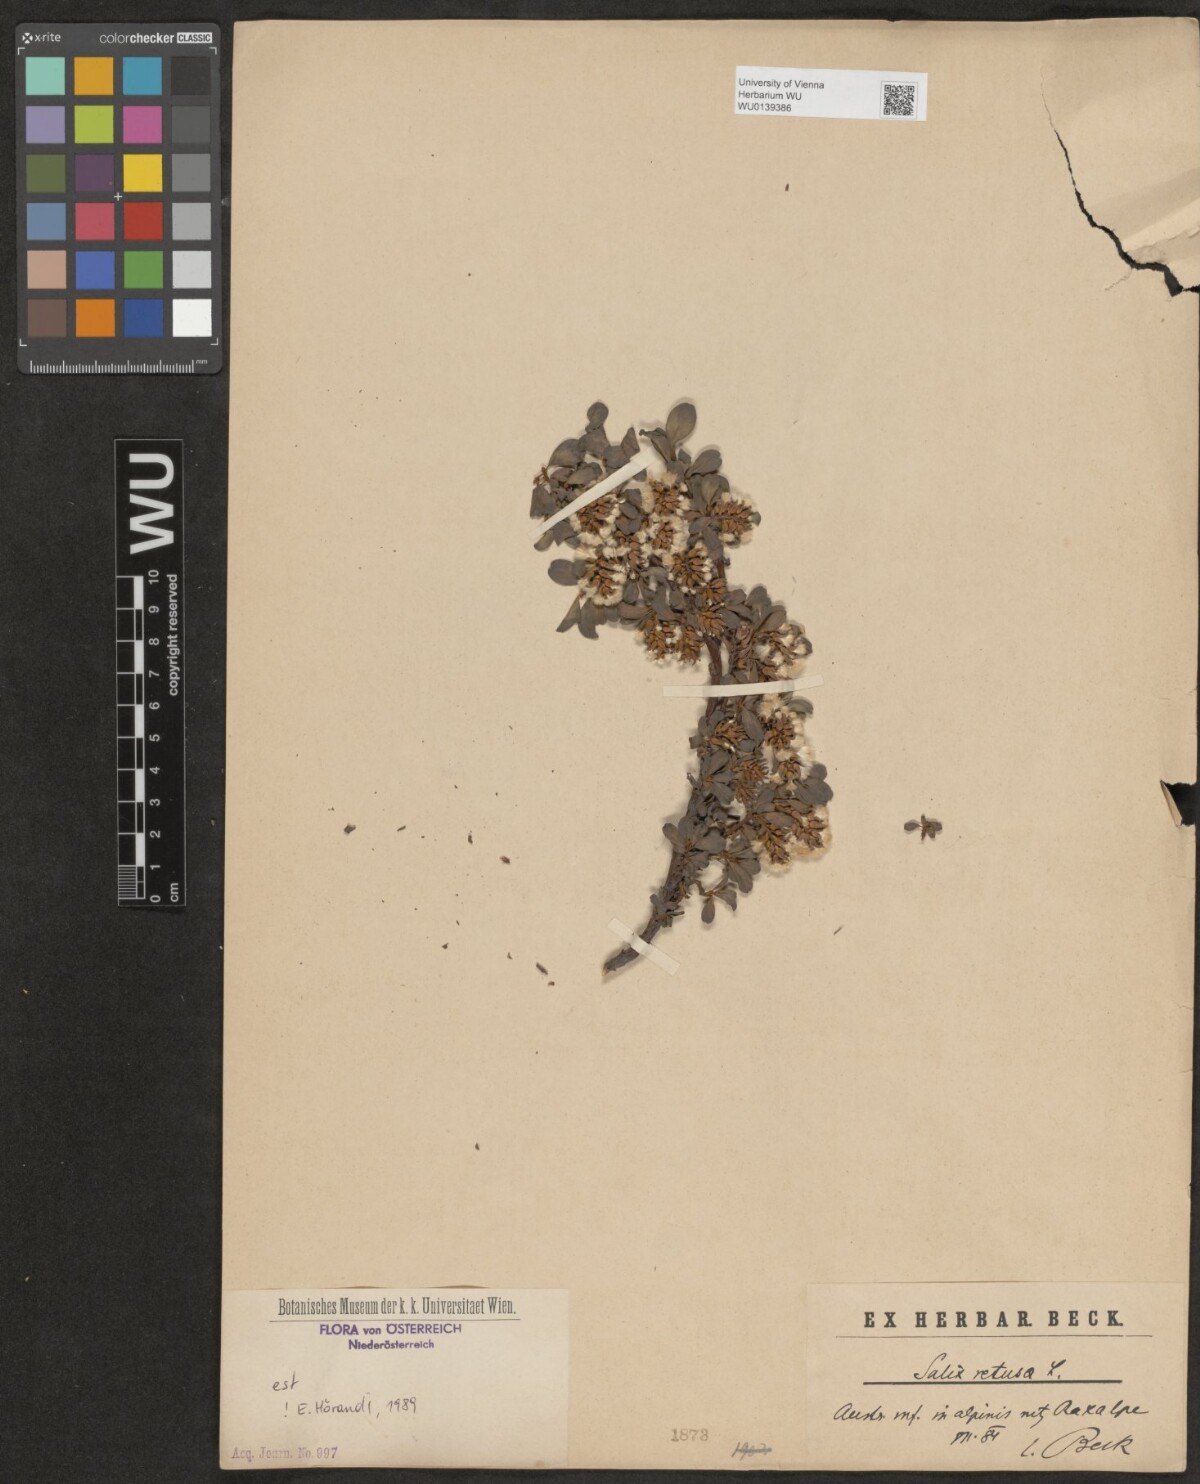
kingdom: Plantae
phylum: Tracheophyta
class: Magnoliopsida
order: Malpighiales
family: Salicaceae
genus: Salix
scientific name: Salix retusa
